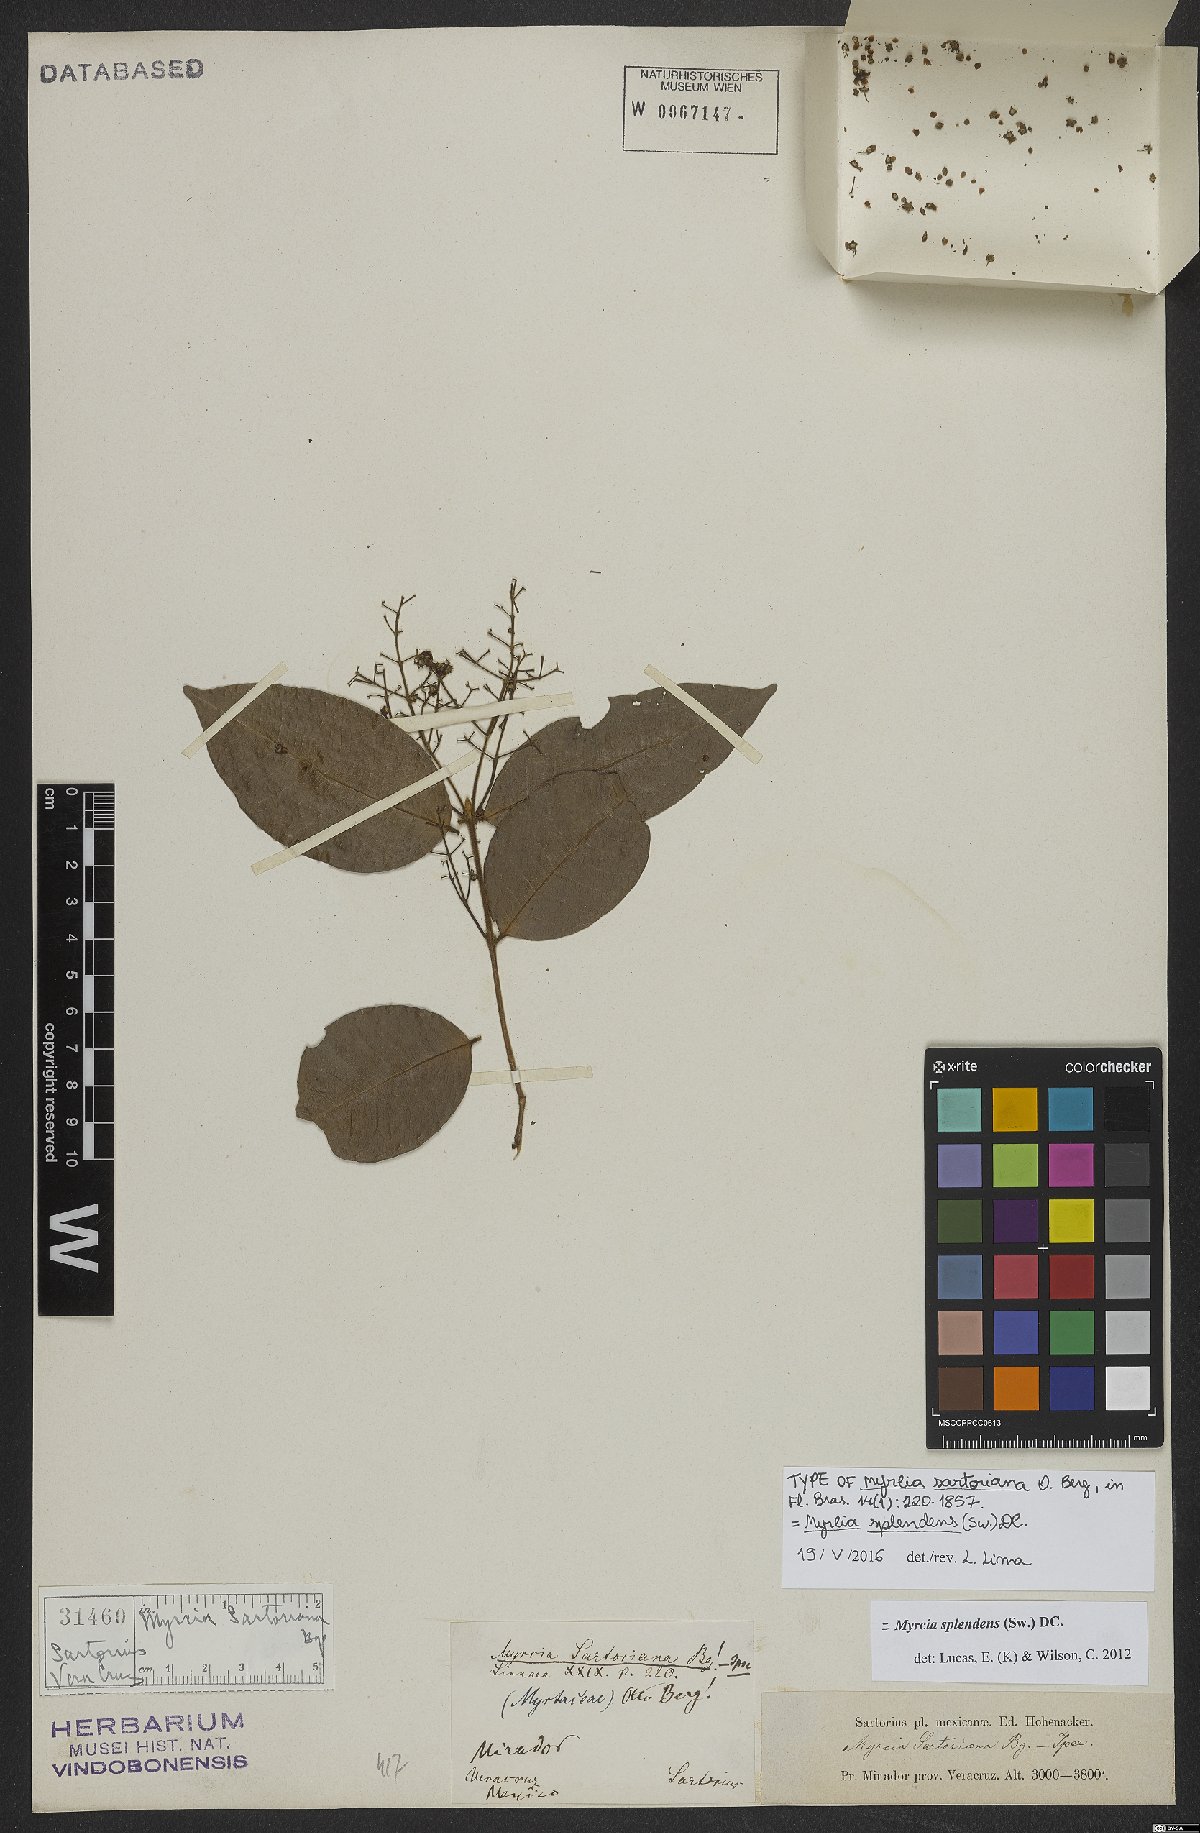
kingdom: Plantae
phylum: Tracheophyta
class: Magnoliopsida
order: Myrtales
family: Myrtaceae
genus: Myrcia
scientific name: Myrcia splendens
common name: Surinam cherry
